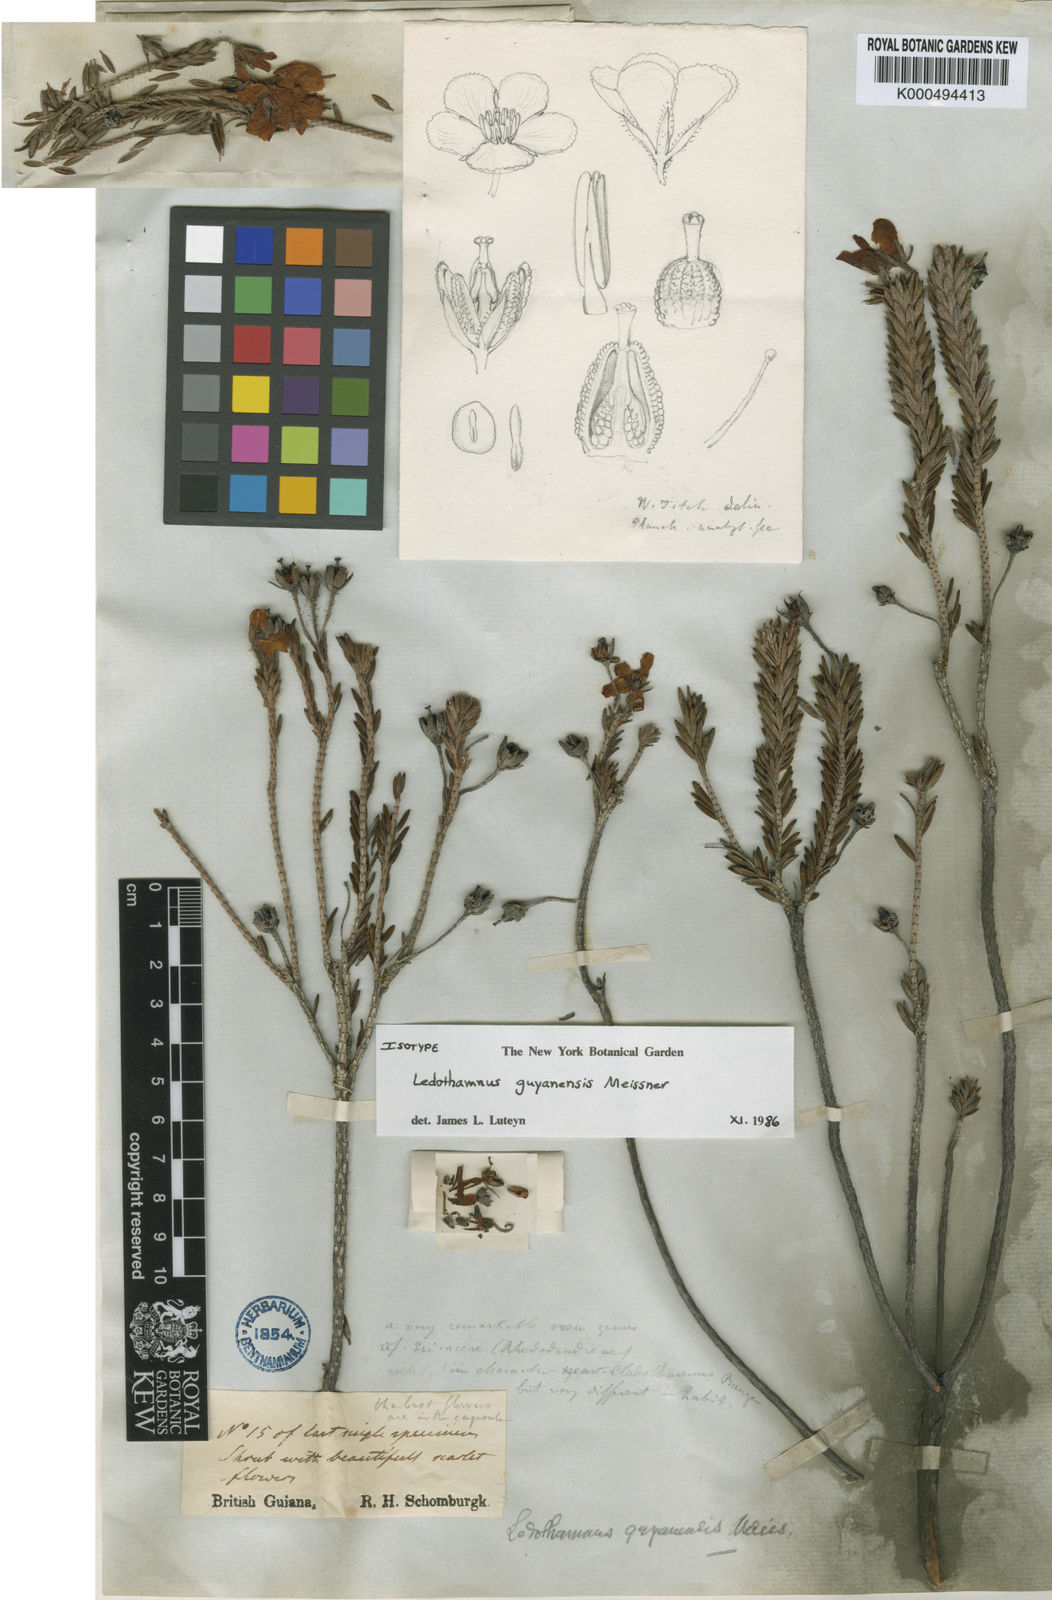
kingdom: Plantae
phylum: Tracheophyta
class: Magnoliopsida
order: Ericales
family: Ericaceae
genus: Ledothamnus
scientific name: Ledothamnus guyanensis
